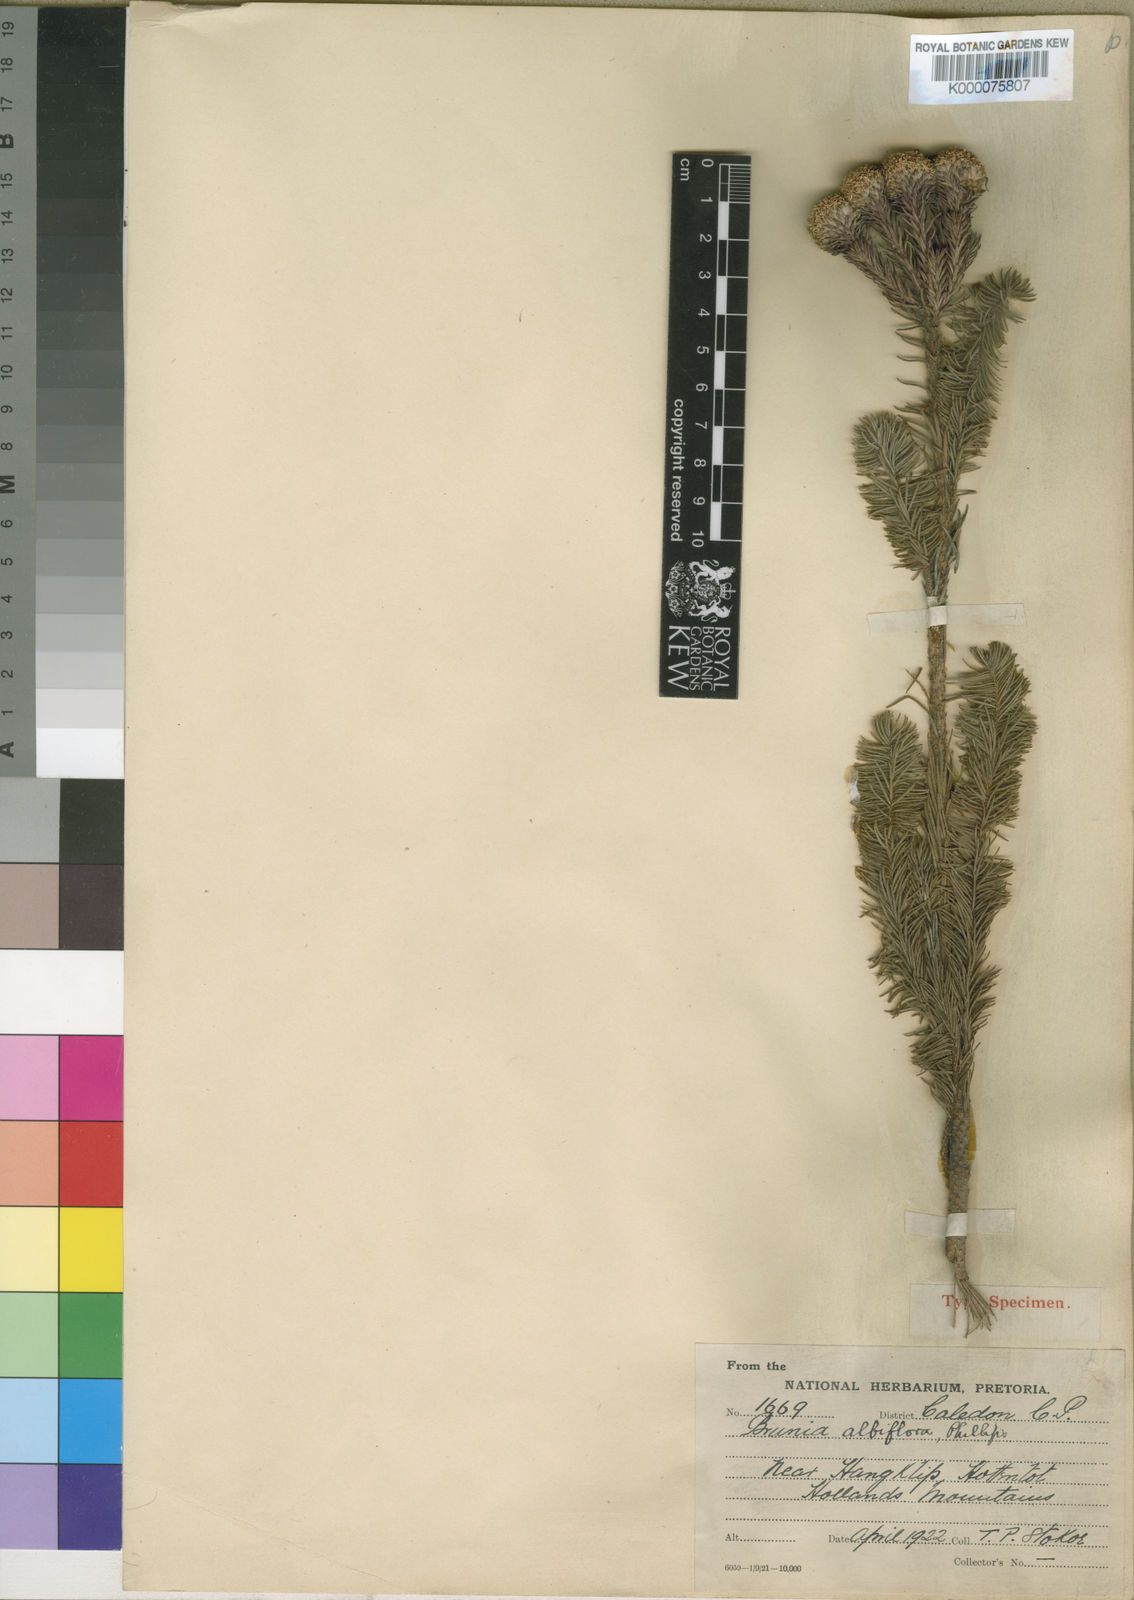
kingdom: Plantae
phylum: Tracheophyta
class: Magnoliopsida
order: Bruniales
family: Bruniaceae
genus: Brunia
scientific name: Brunia
